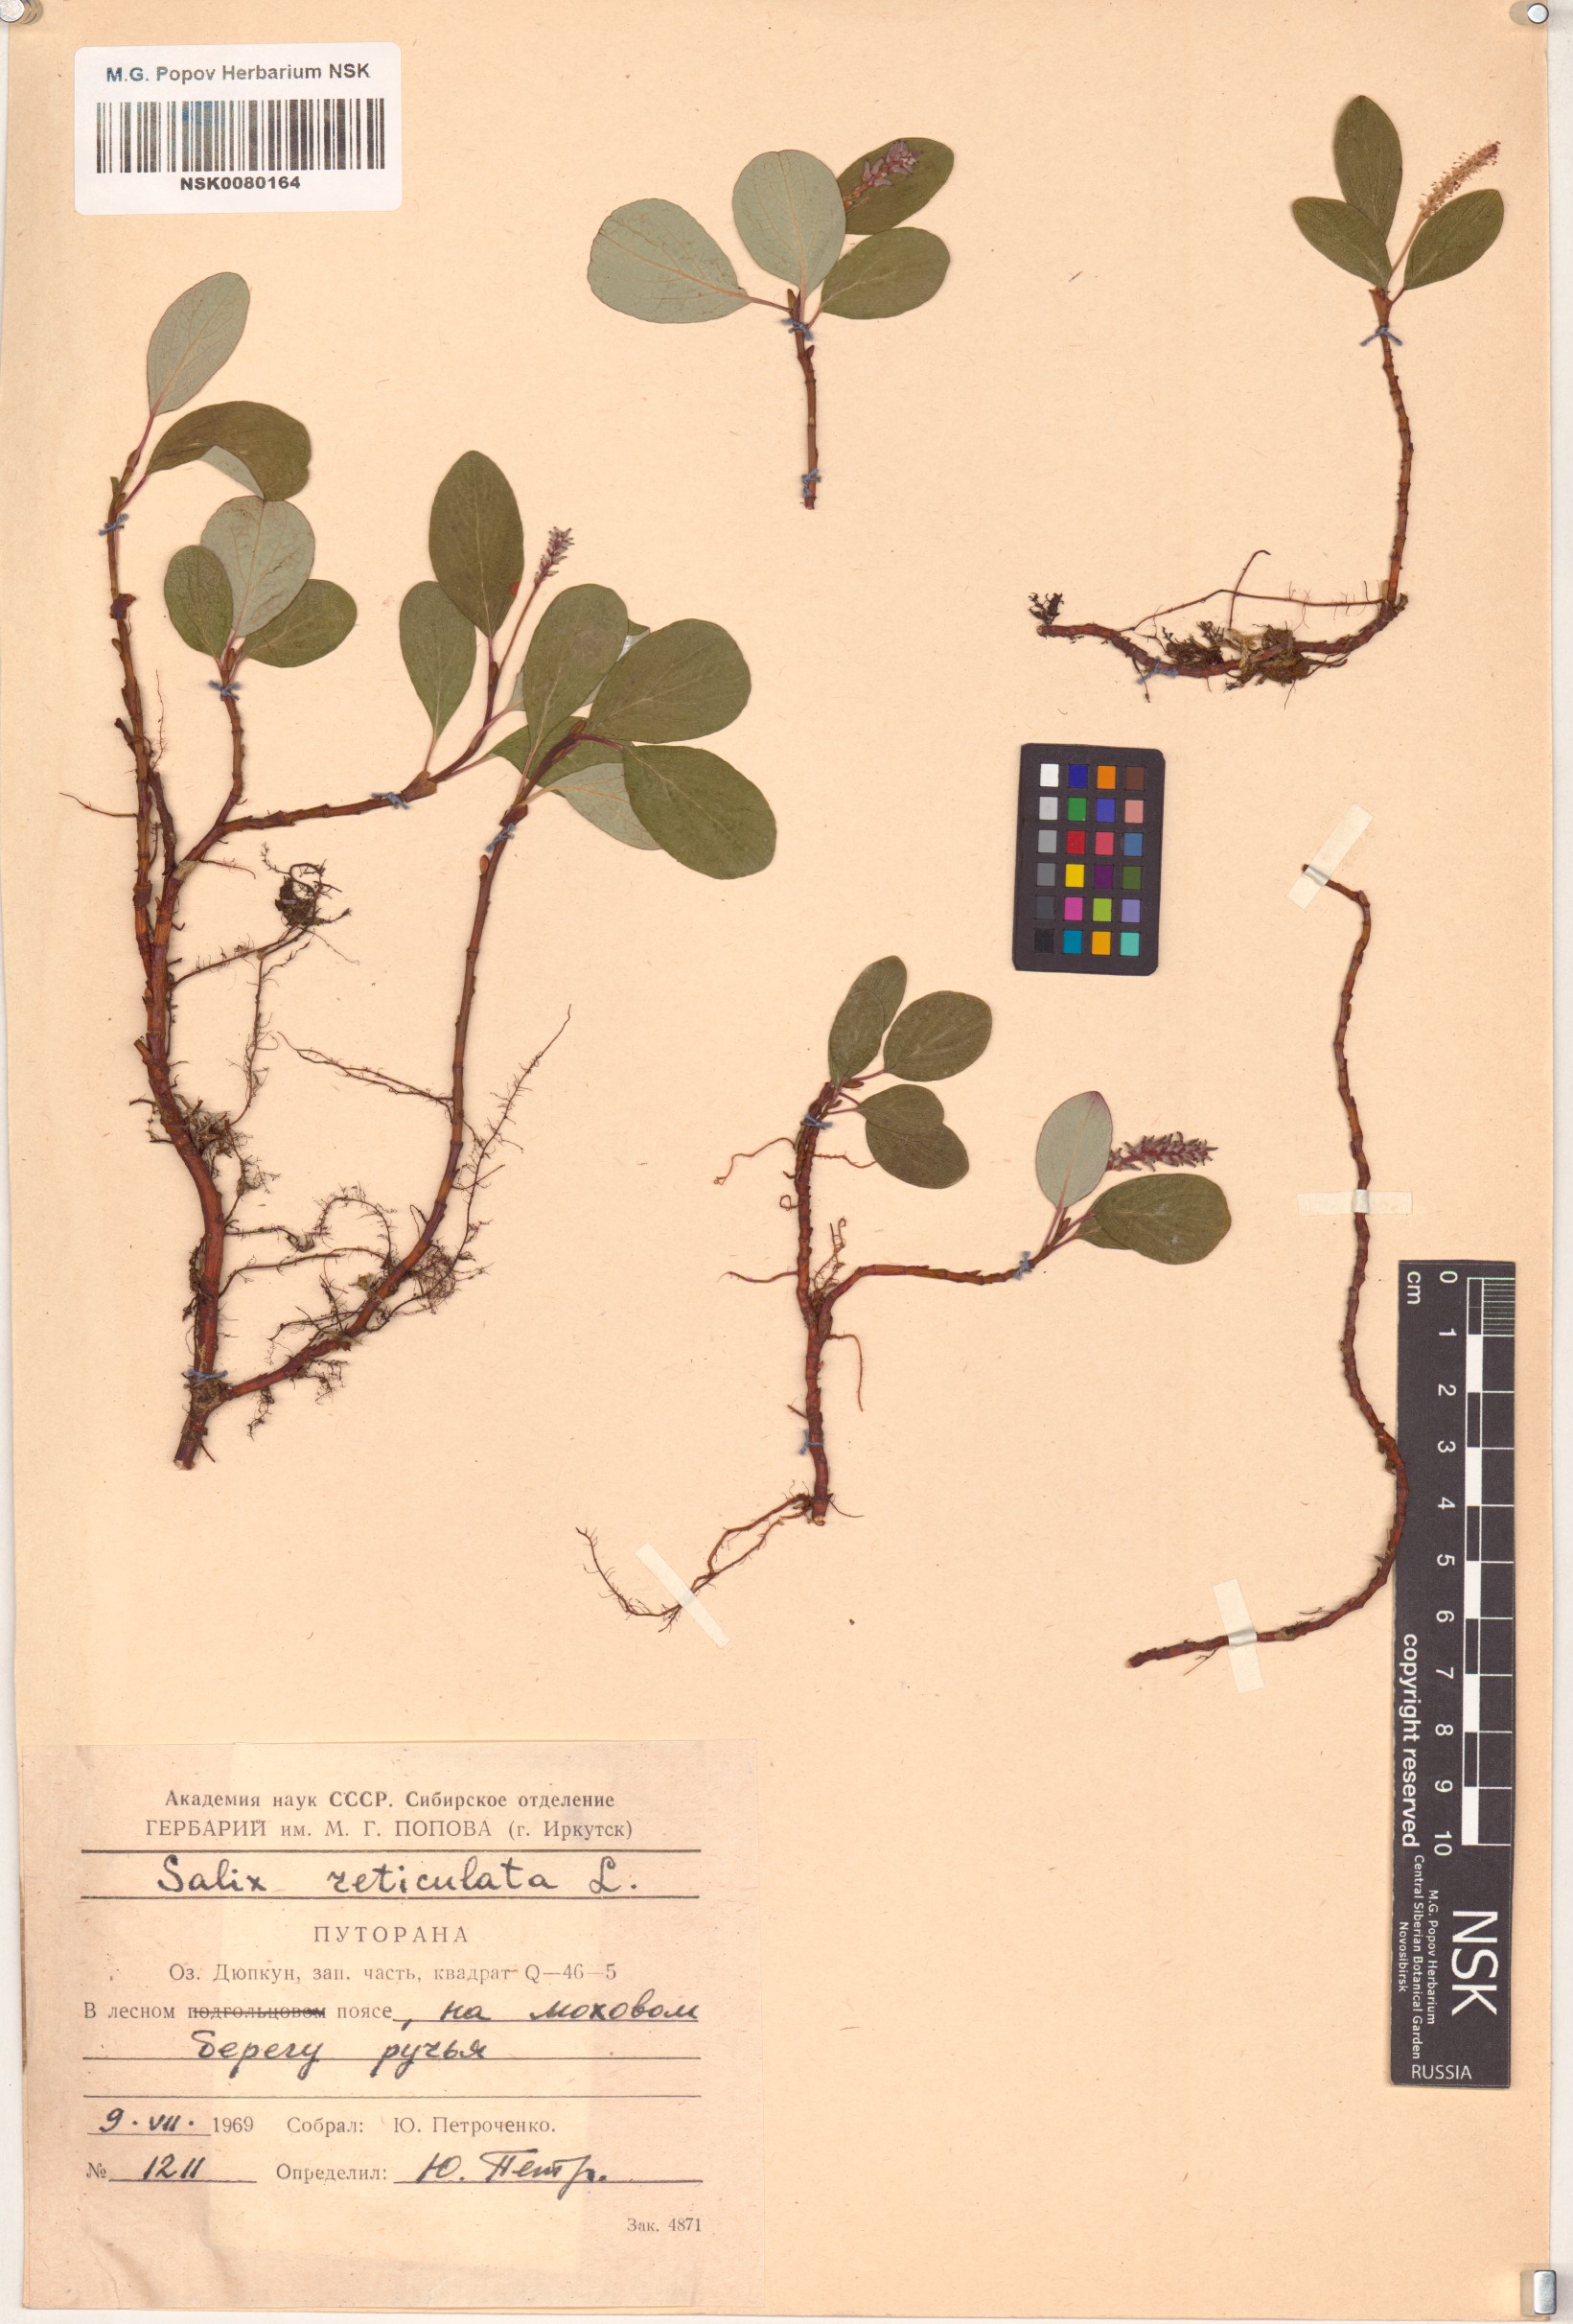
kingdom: Plantae
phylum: Tracheophyta
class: Magnoliopsida
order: Malpighiales
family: Salicaceae
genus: Salix
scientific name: Salix reticulata
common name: Net-leaved willow
